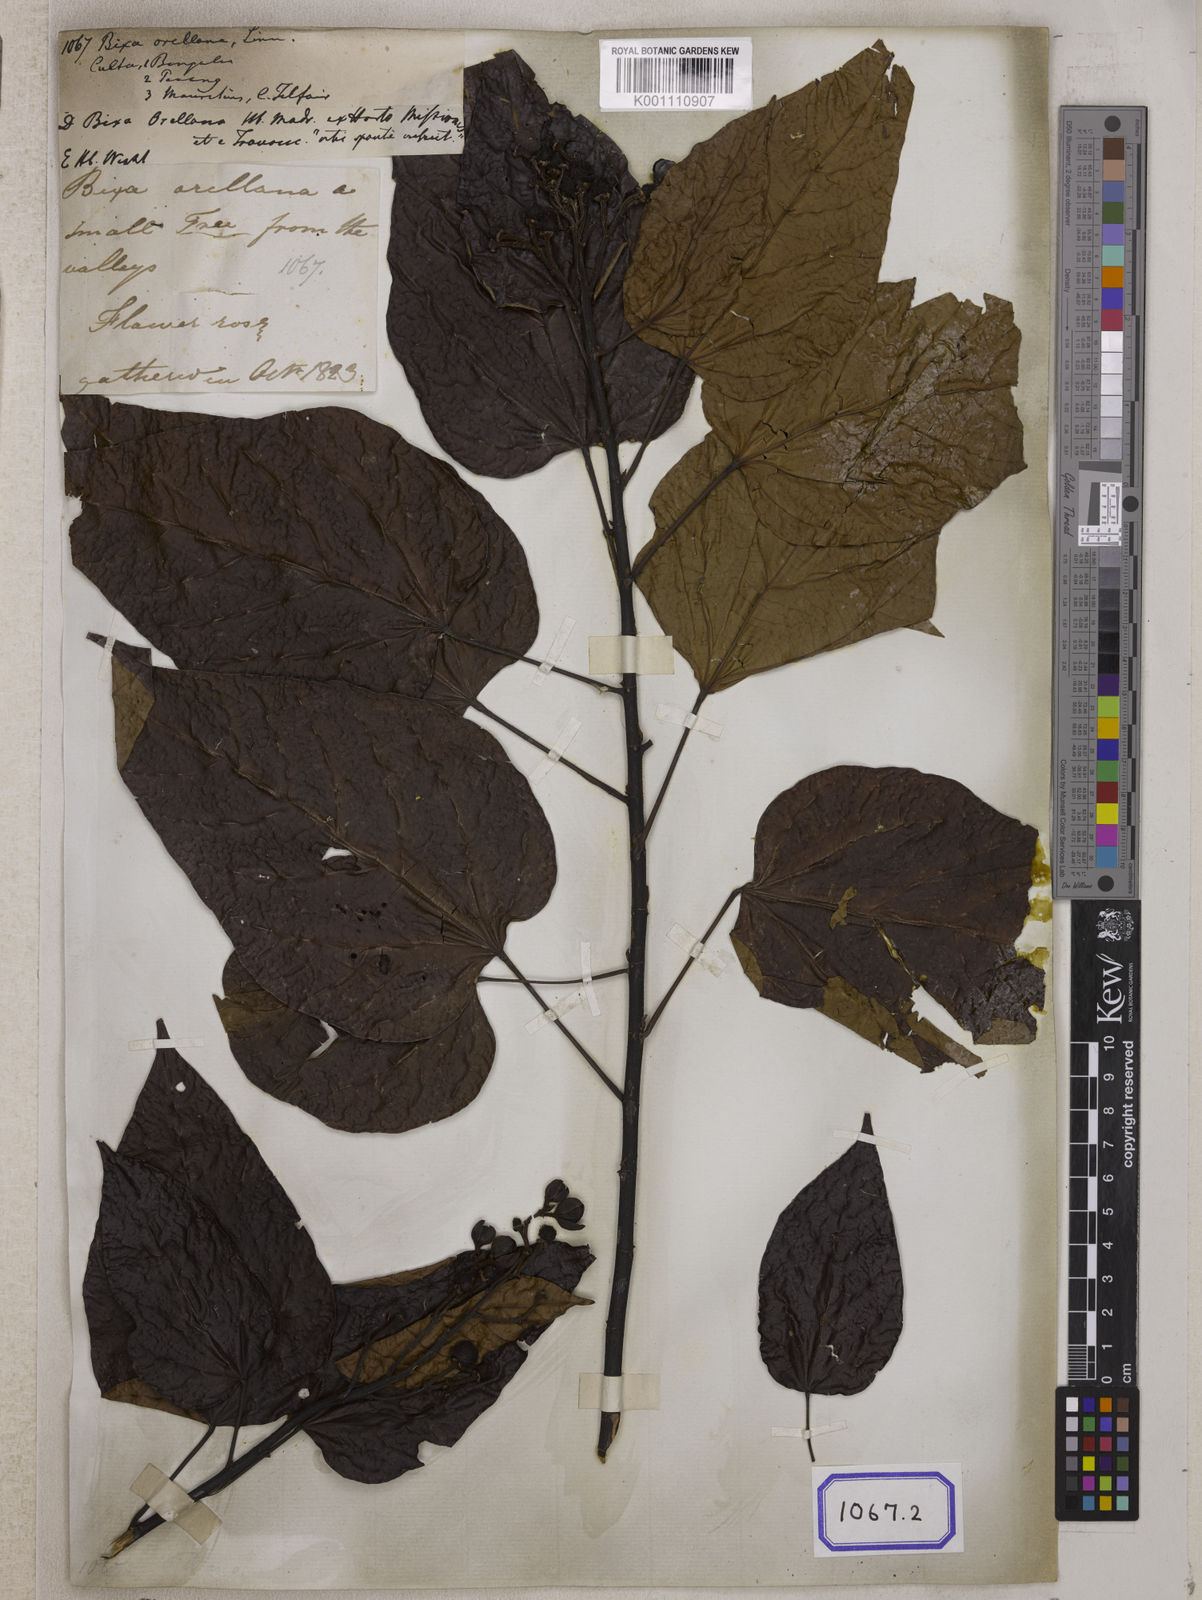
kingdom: Plantae
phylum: Tracheophyta
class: Magnoliopsida
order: Malvales
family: Bixaceae
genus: Bixa
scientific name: Bixa orellana
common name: Lipsticktree
